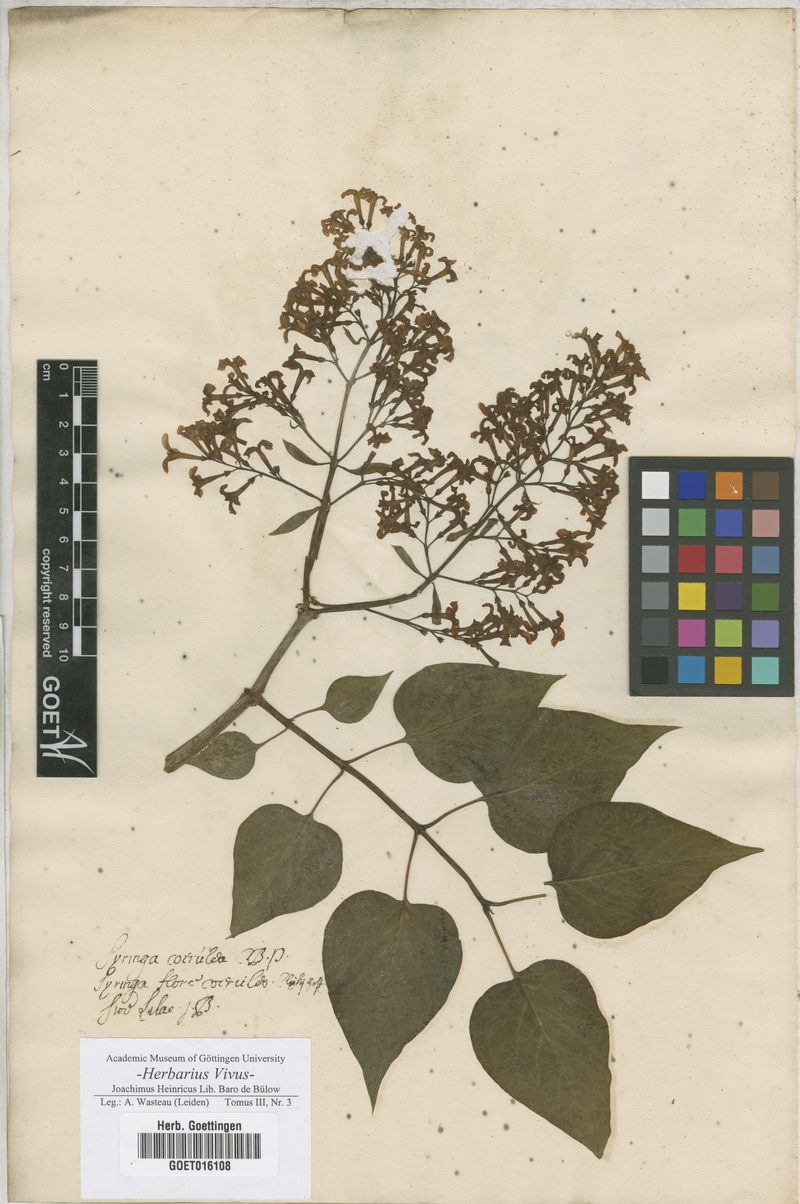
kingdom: Plantae
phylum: Tracheophyta
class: Magnoliopsida
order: Lamiales
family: Oleaceae
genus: Syringa
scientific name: Syringa vulgaris
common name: Common lilac
